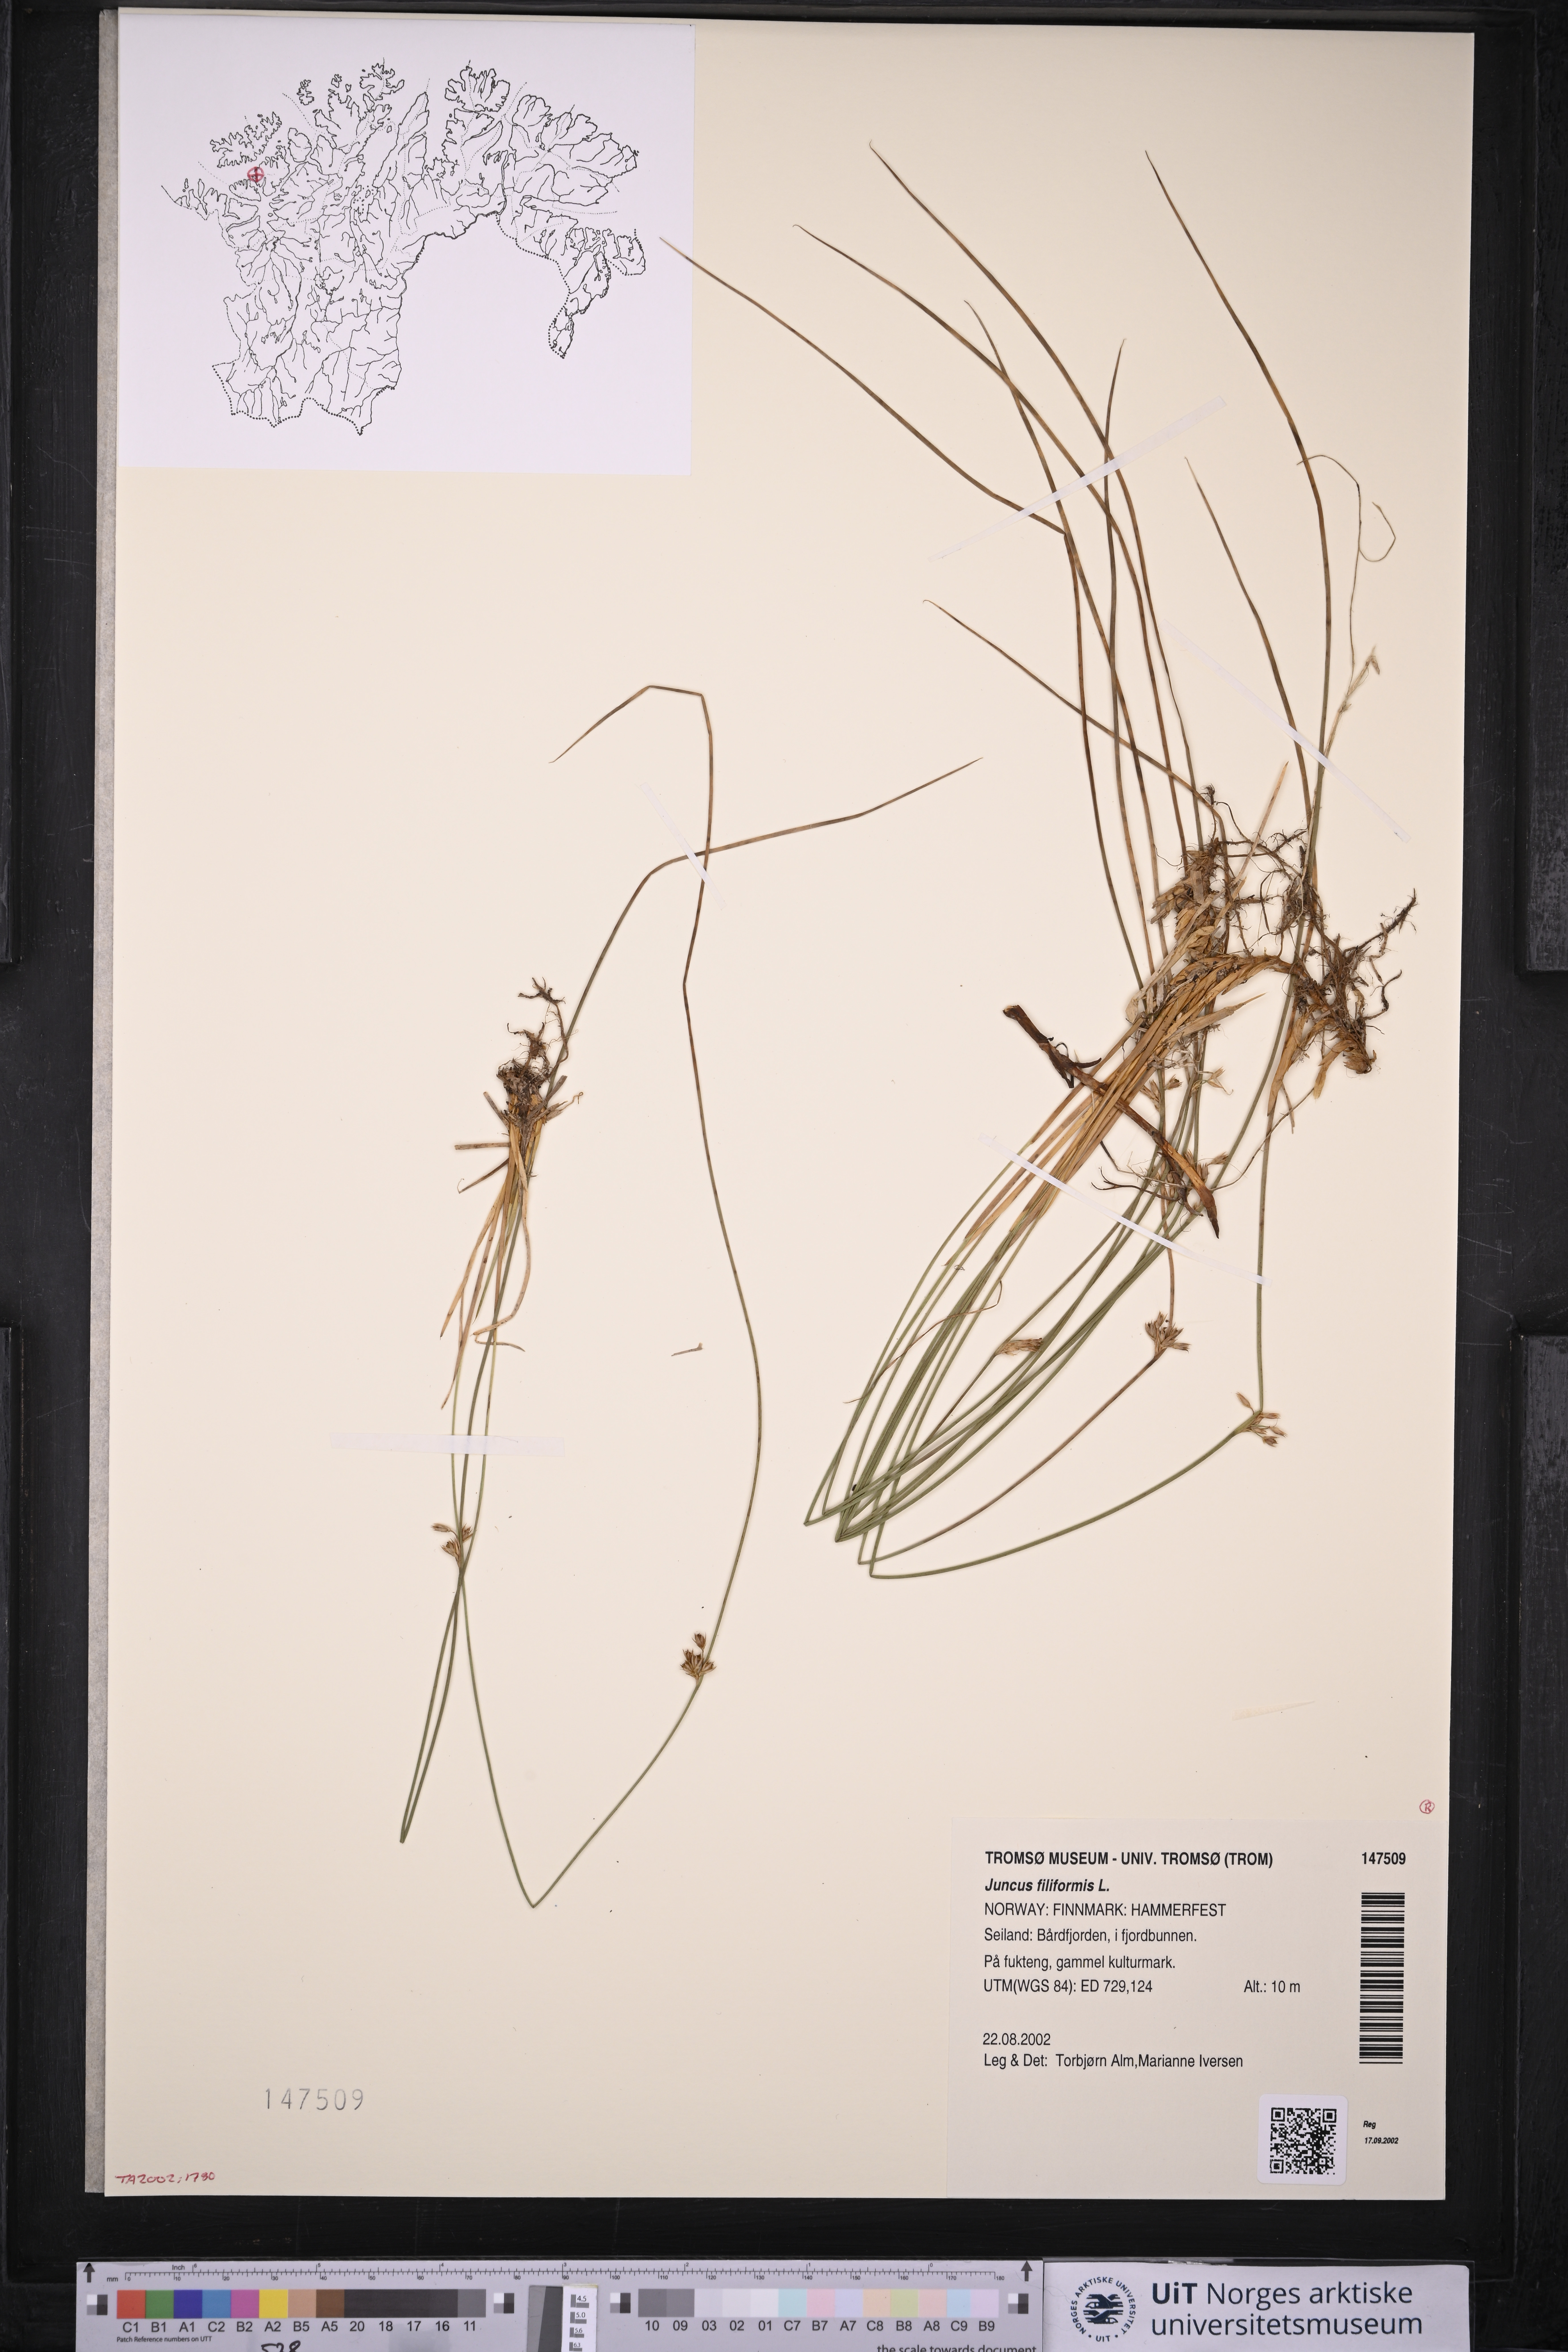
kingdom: Plantae
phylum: Tracheophyta
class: Liliopsida
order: Poales
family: Juncaceae
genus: Juncus
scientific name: Juncus filiformis
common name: Thread rush
